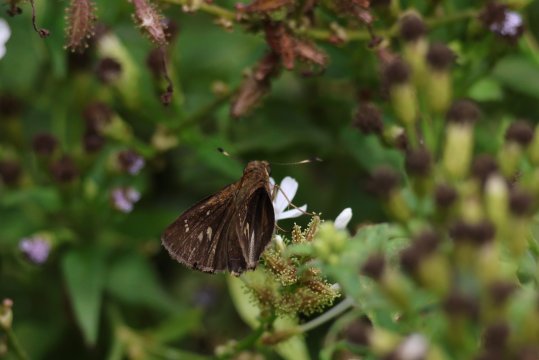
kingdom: Animalia
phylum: Arthropoda
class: Insecta
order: Lepidoptera
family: Hesperiidae
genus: Decinea
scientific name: Decinea percosius
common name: Double-dotted Skipper
